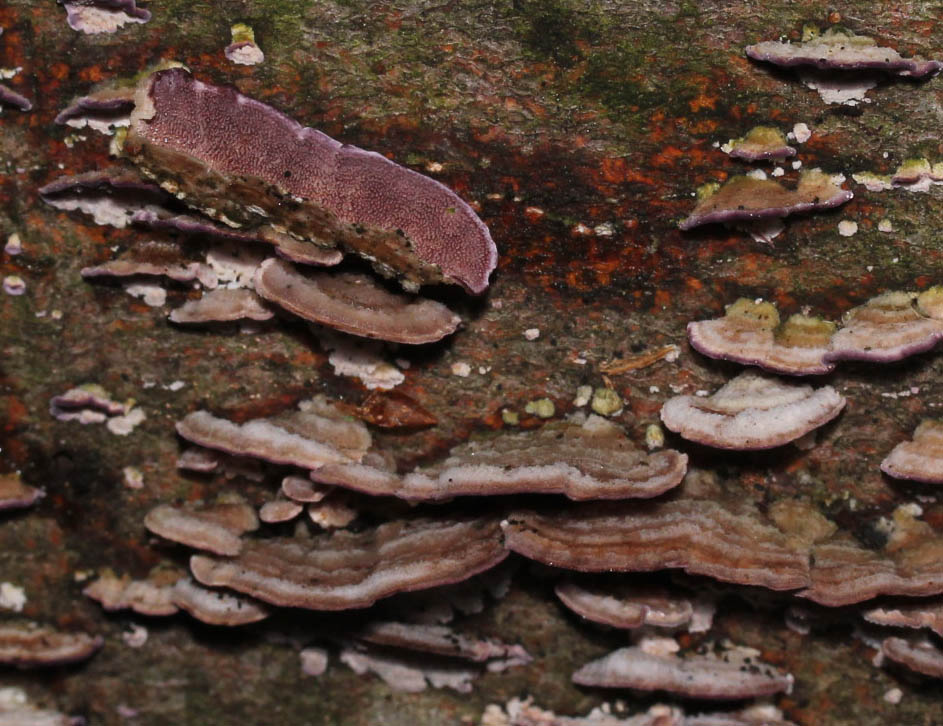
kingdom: Fungi
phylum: Basidiomycota
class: Agaricomycetes
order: Hymenochaetales
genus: Trichaptum
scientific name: Trichaptum abietinum
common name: almindelig violporesvamp
